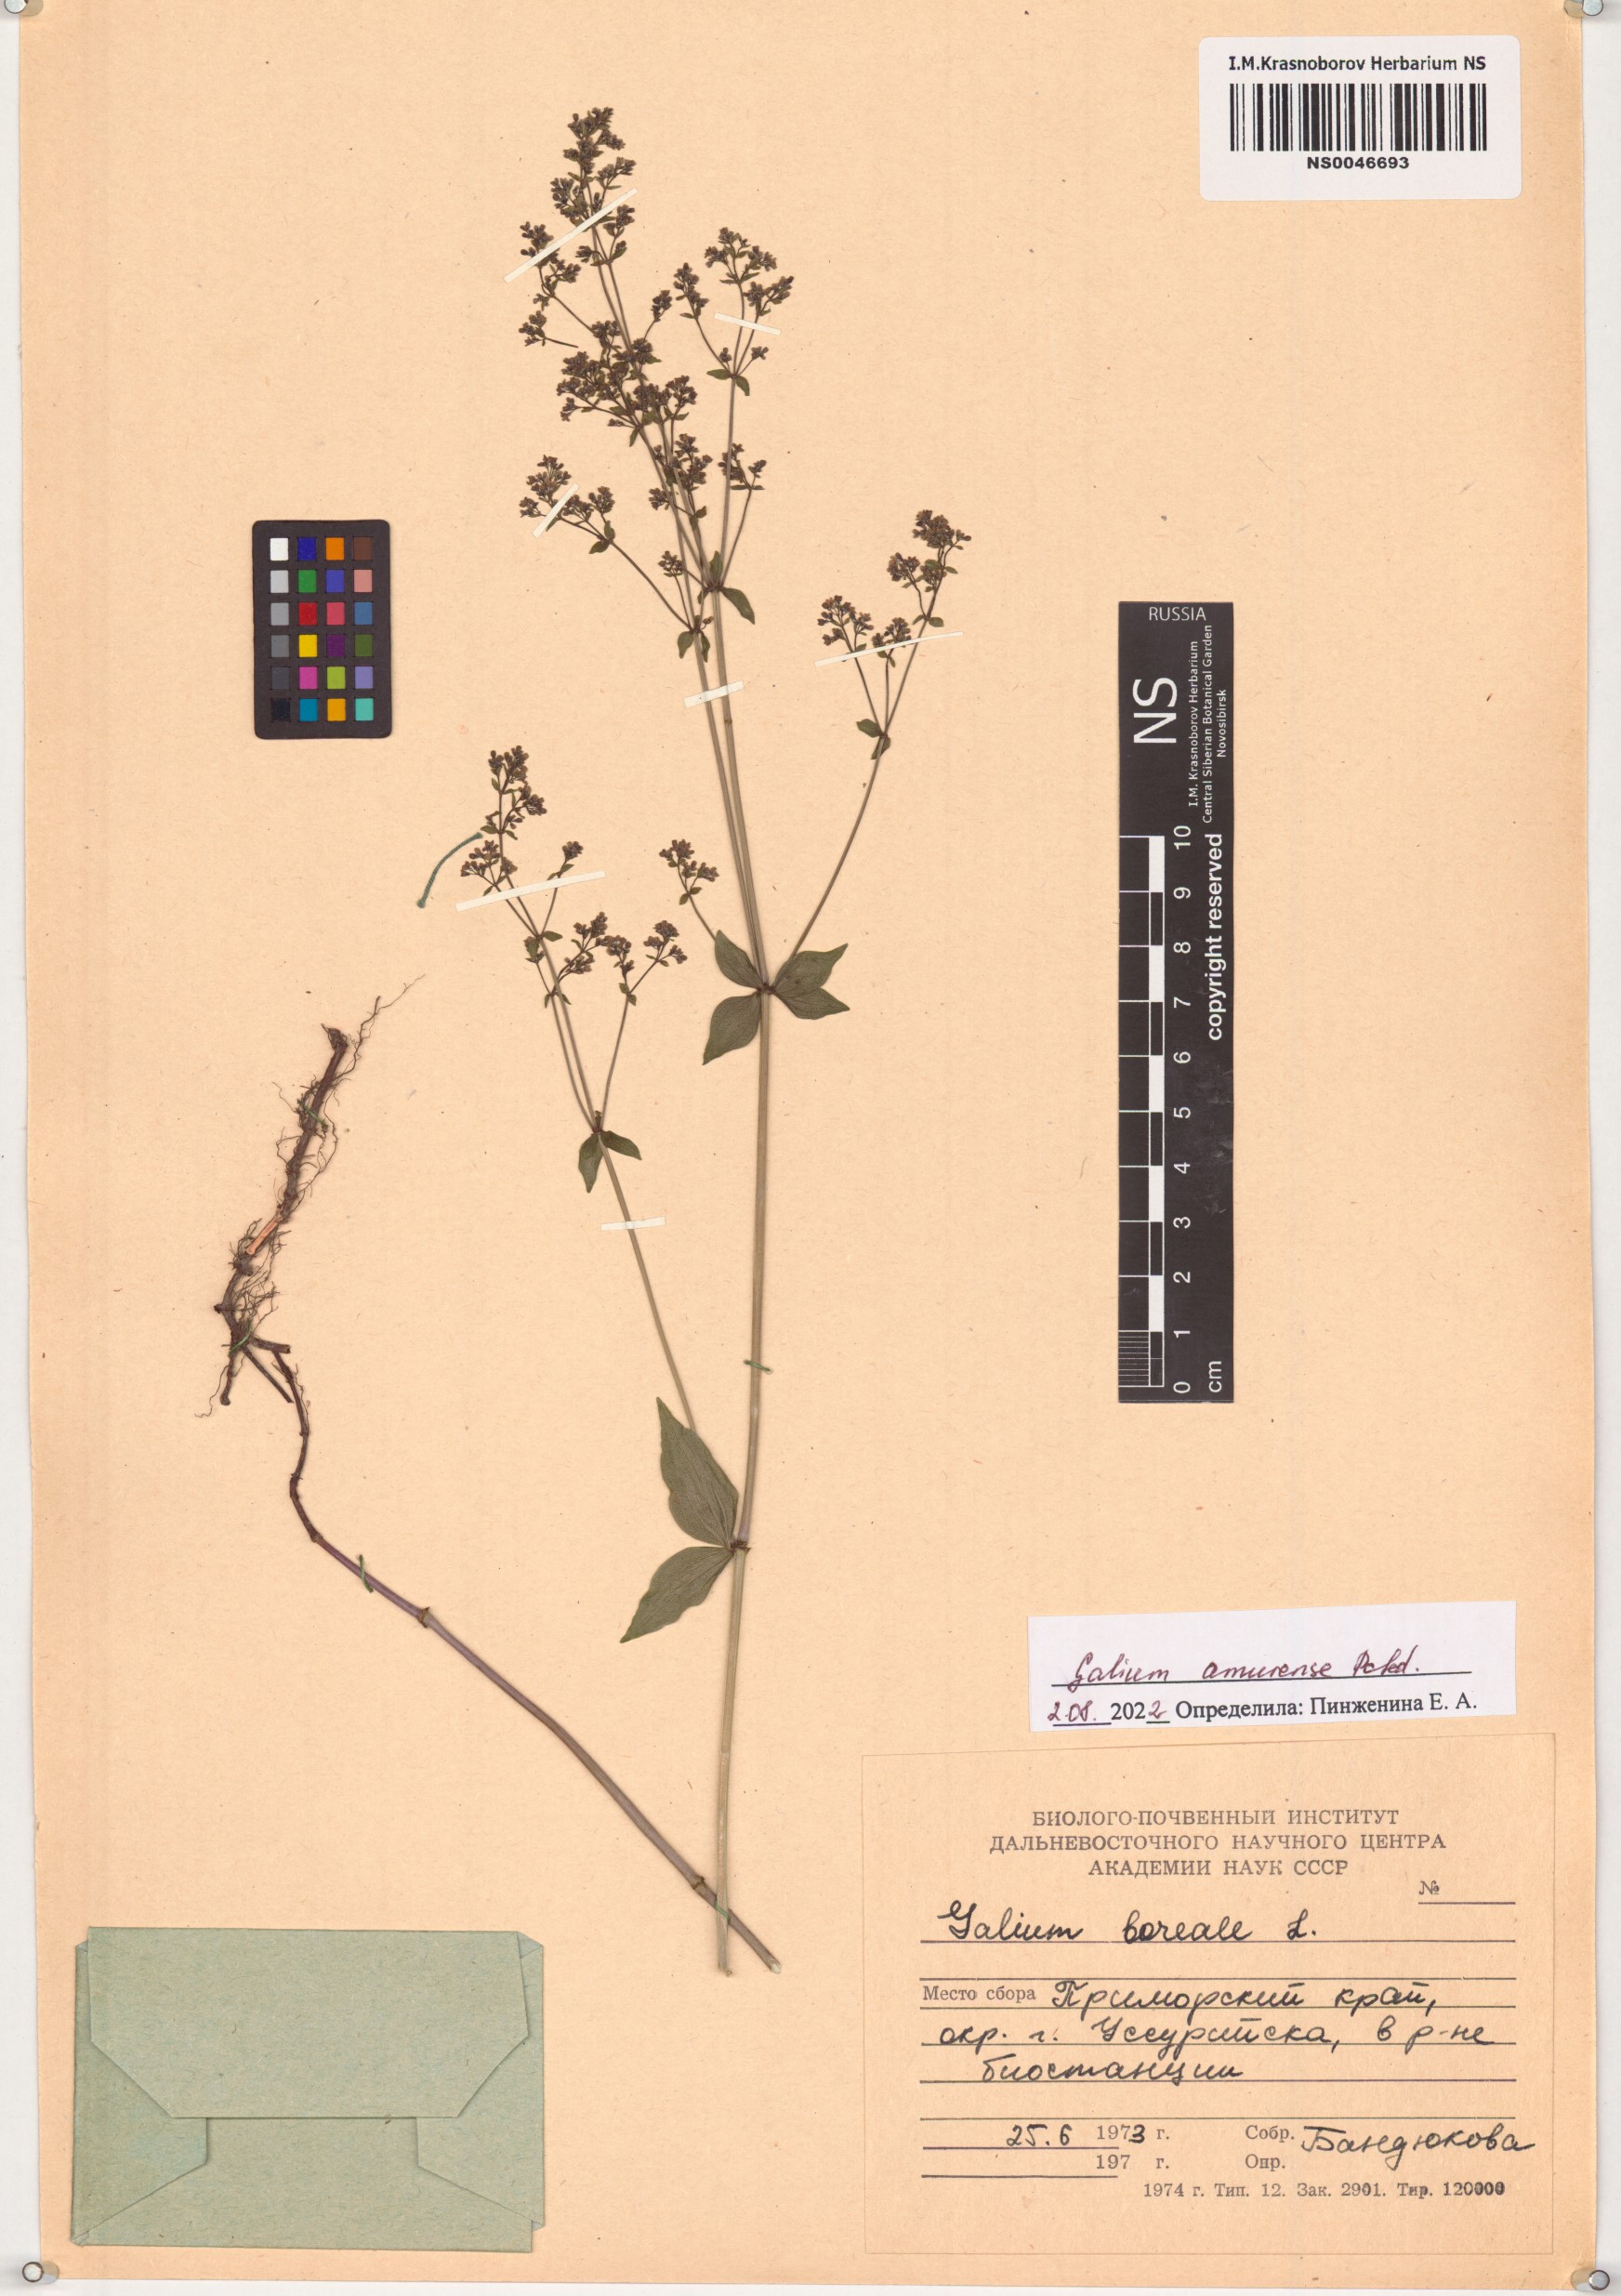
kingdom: Plantae
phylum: Tracheophyta
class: Magnoliopsida
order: Gentianales
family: Rubiaceae
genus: Galium
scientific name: Galium amurense
